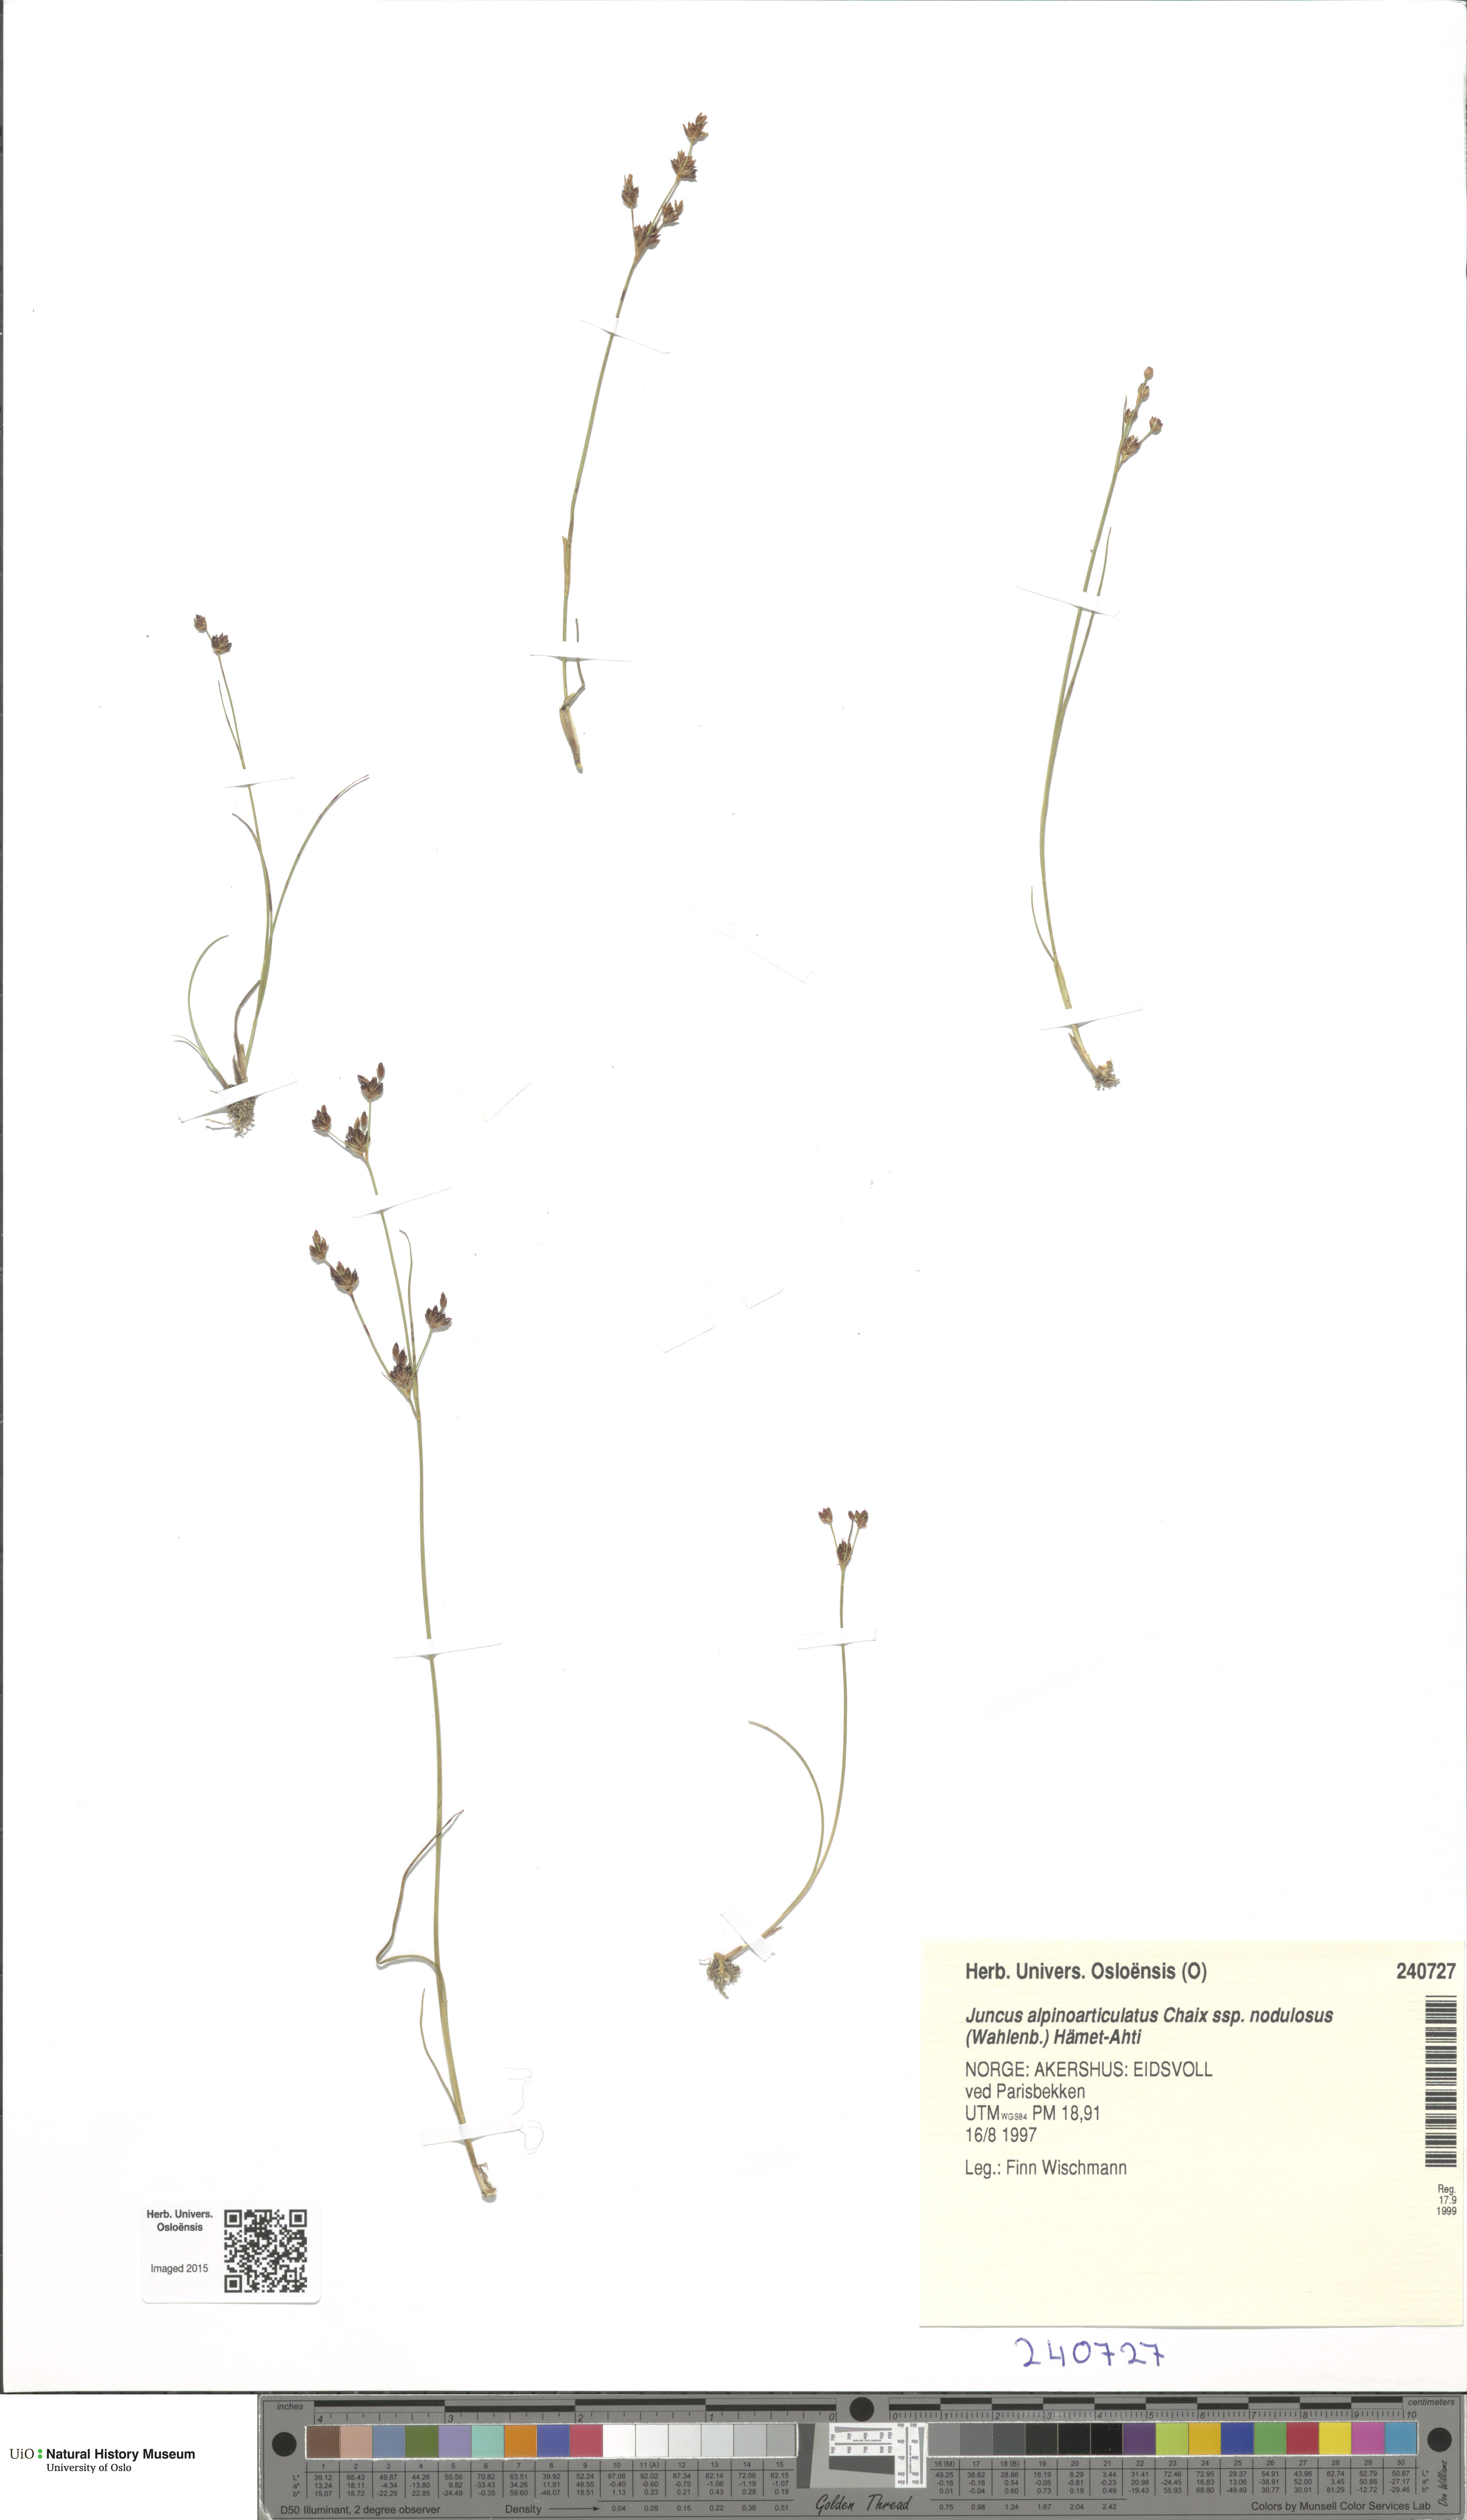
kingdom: Plantae
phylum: Tracheophyta
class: Liliopsida
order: Poales
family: Juncaceae
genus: Juncus
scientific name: Juncus alpinoarticulatus
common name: Alpine rush
